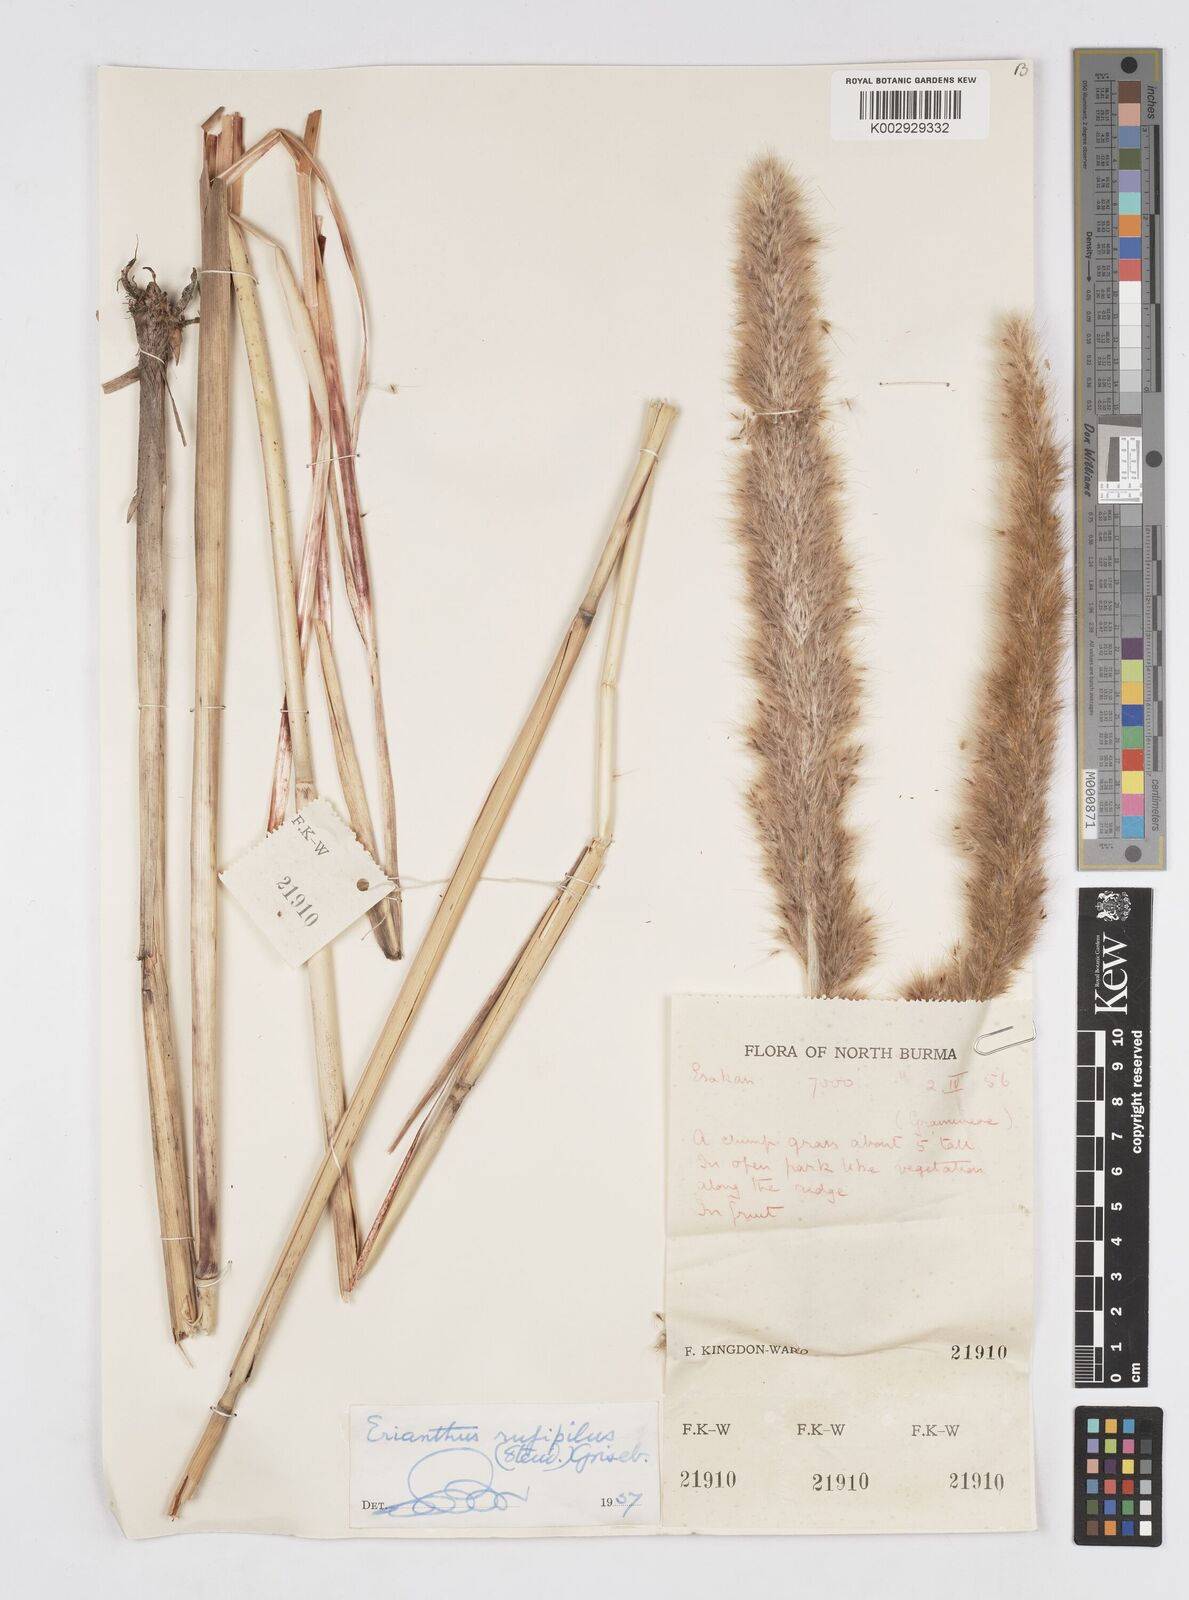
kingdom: Plantae
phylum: Tracheophyta
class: Liliopsida
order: Poales
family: Poaceae
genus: Tripidium
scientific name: Tripidium rufipilum
